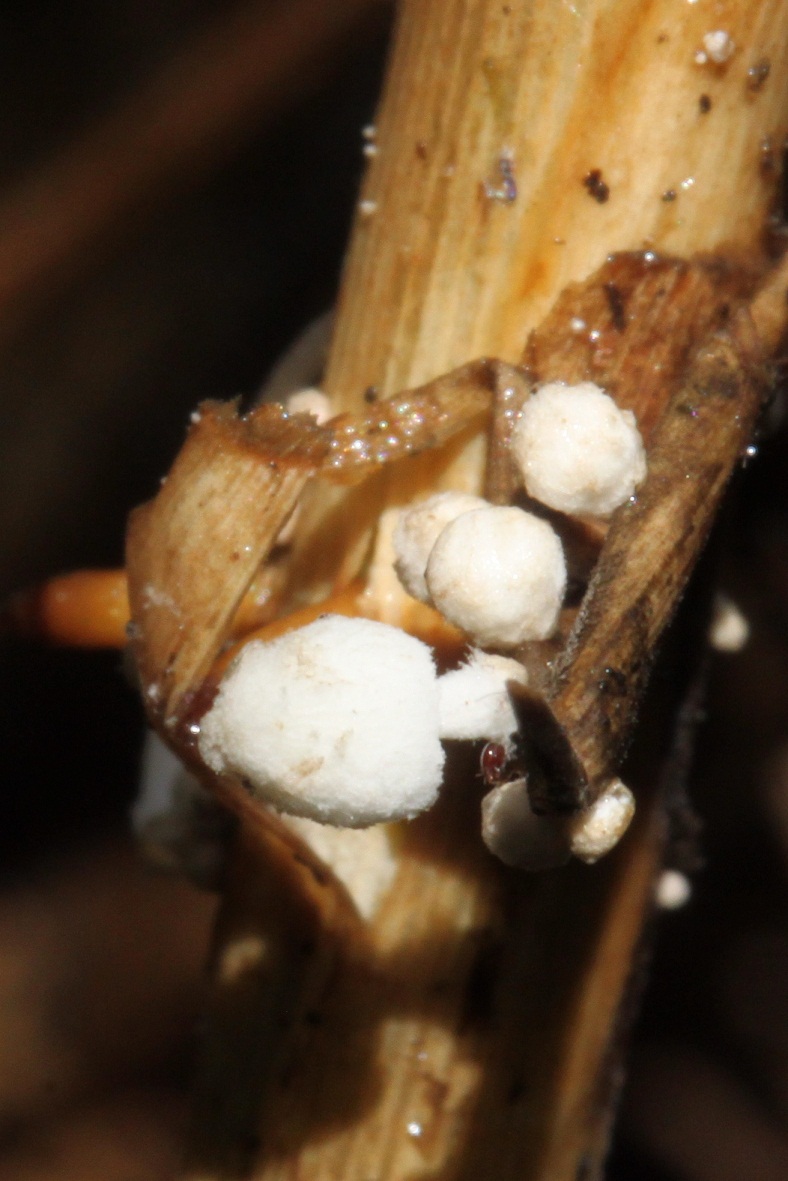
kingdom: Fungi
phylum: Basidiomycota
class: Agaricomycetes
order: Agaricales
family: Psathyrellaceae
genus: Coprinopsis
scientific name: Coprinopsis urticicola
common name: urte-blækhat
